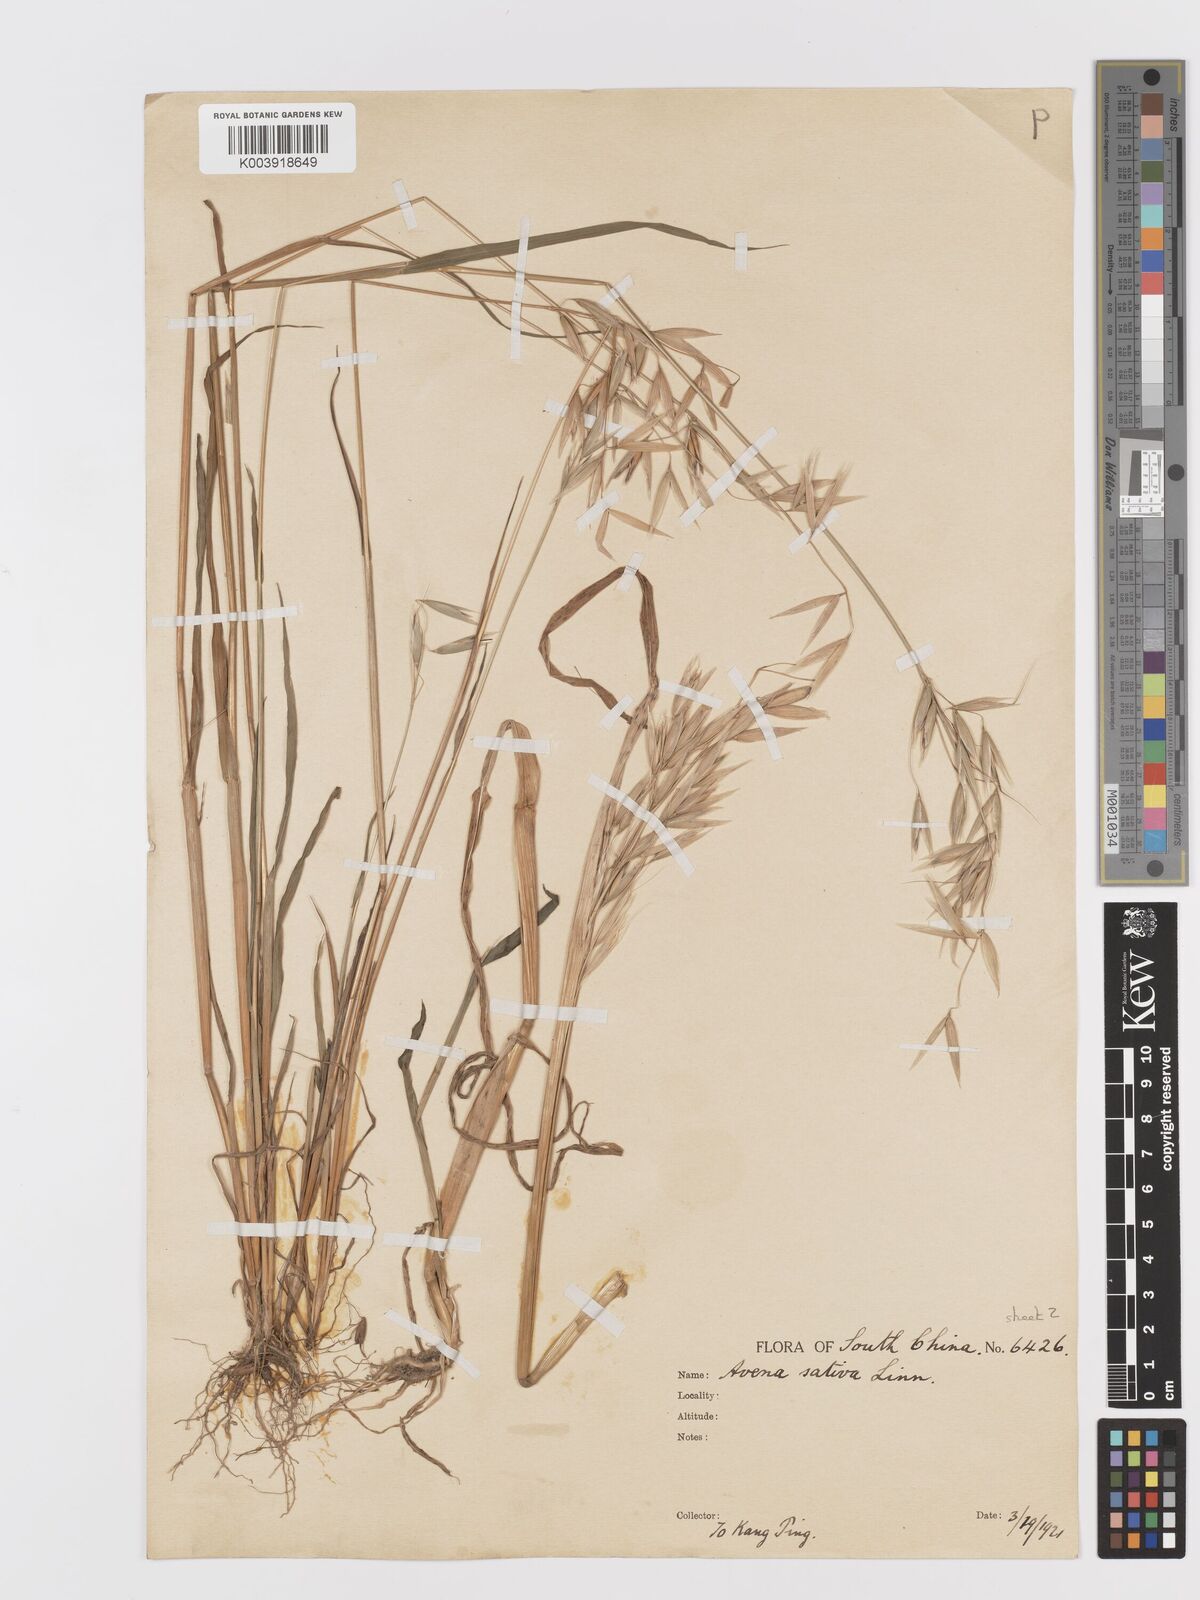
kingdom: Plantae
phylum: Tracheophyta
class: Liliopsida
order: Poales
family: Poaceae
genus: Avena
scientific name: Avena sativa
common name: Oat
